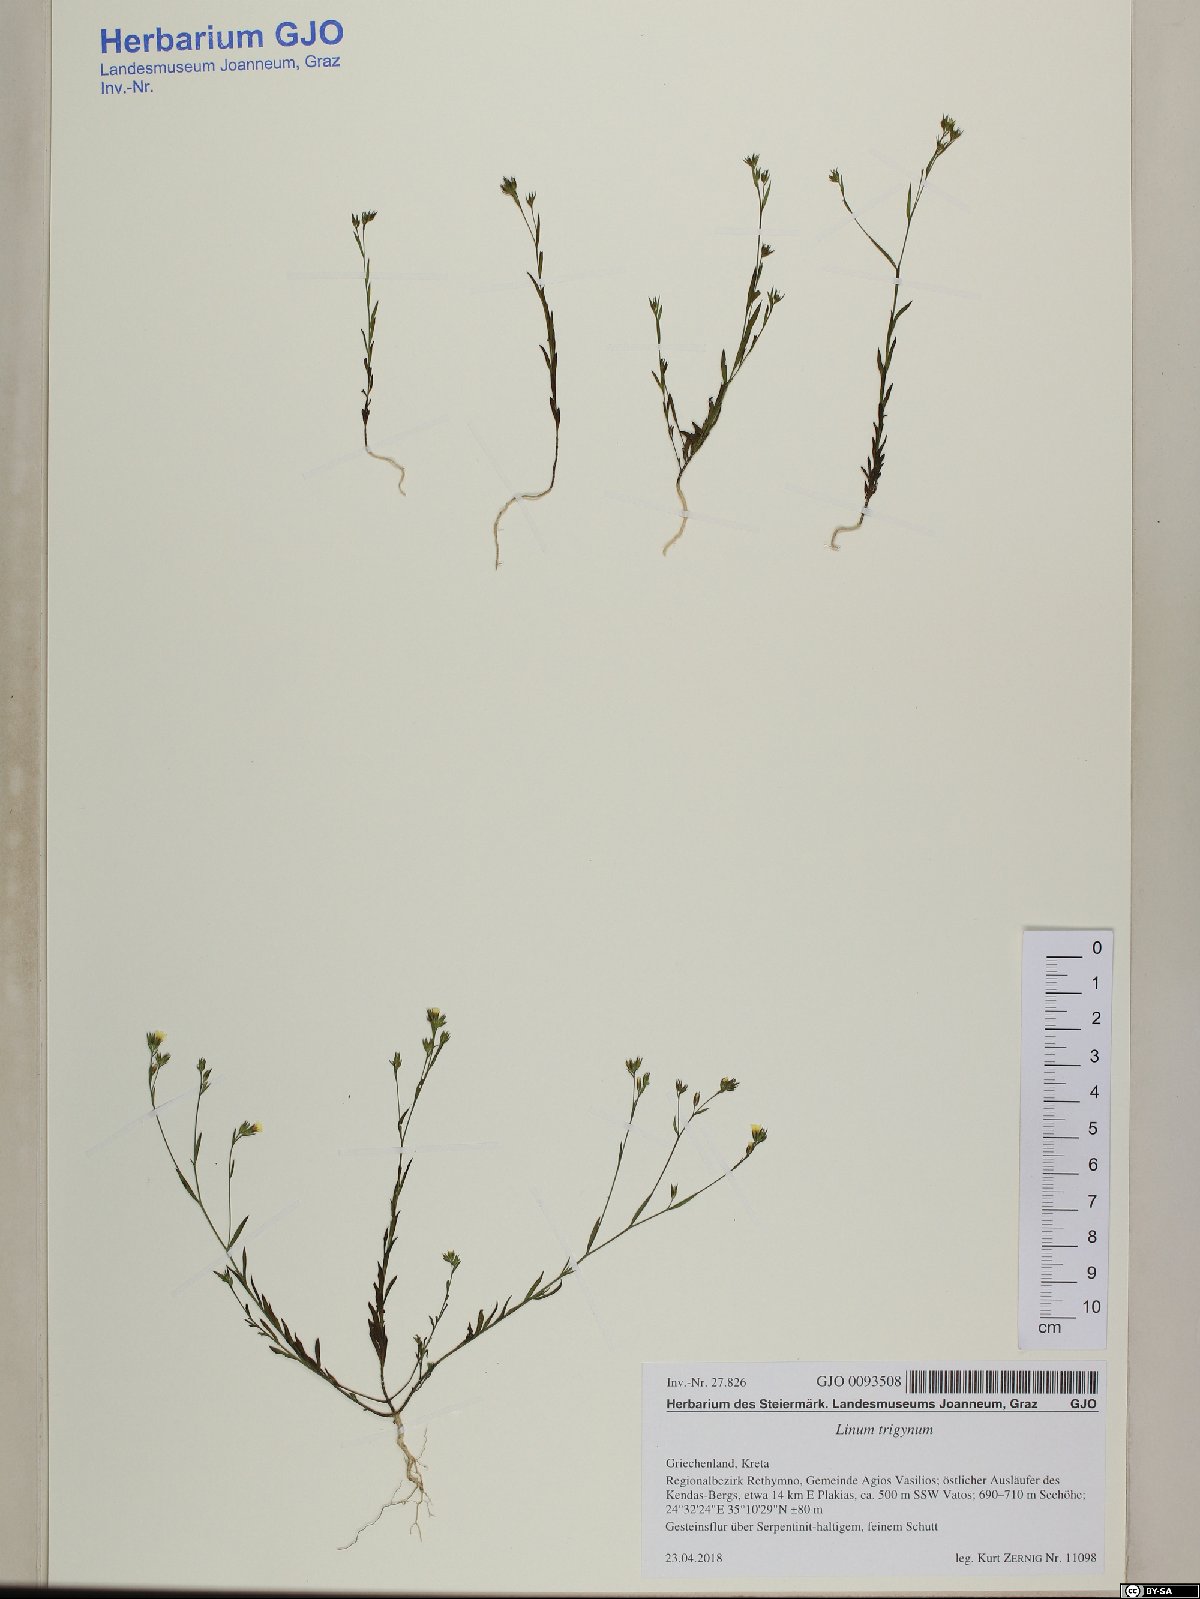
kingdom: Plantae
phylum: Tracheophyta
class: Magnoliopsida
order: Malpighiales
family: Linaceae
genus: Linum
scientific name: Linum trigynum
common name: French flax
